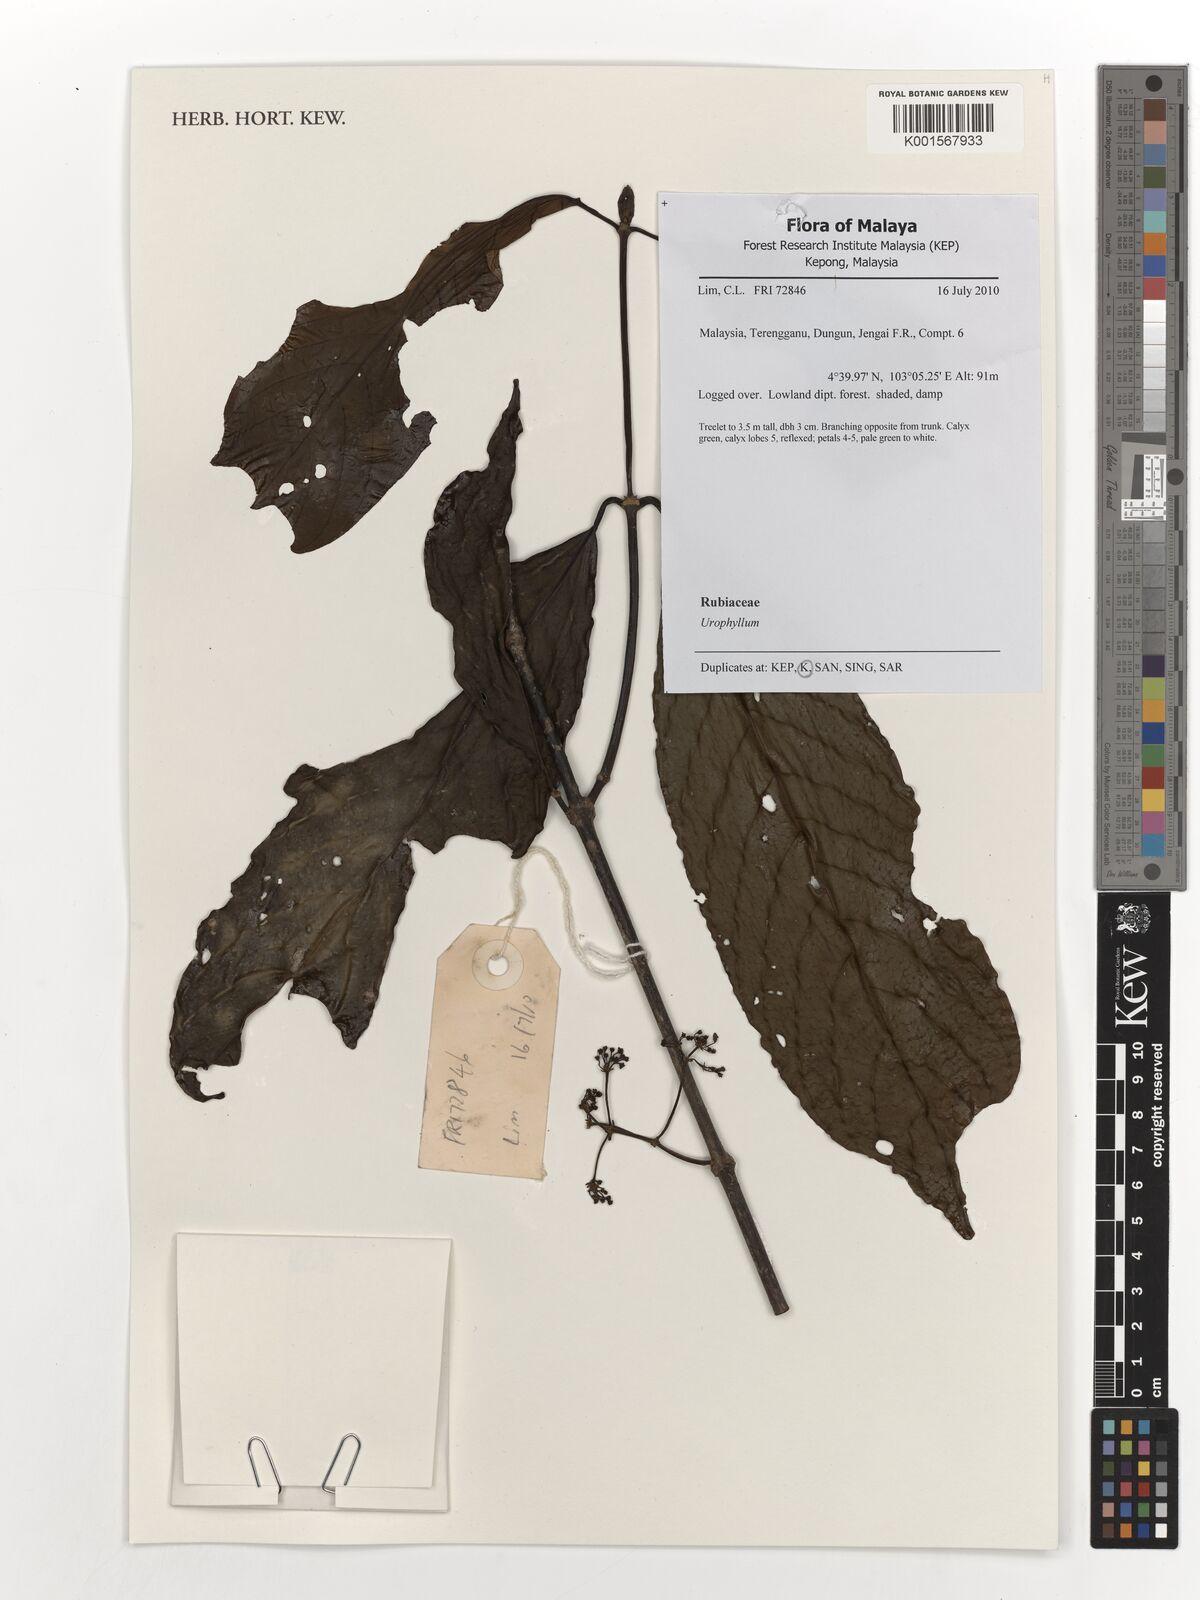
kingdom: Plantae
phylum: Tracheophyta
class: Magnoliopsida
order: Gentianales
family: Rubiaceae
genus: Urophyllum
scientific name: Urophyllum
